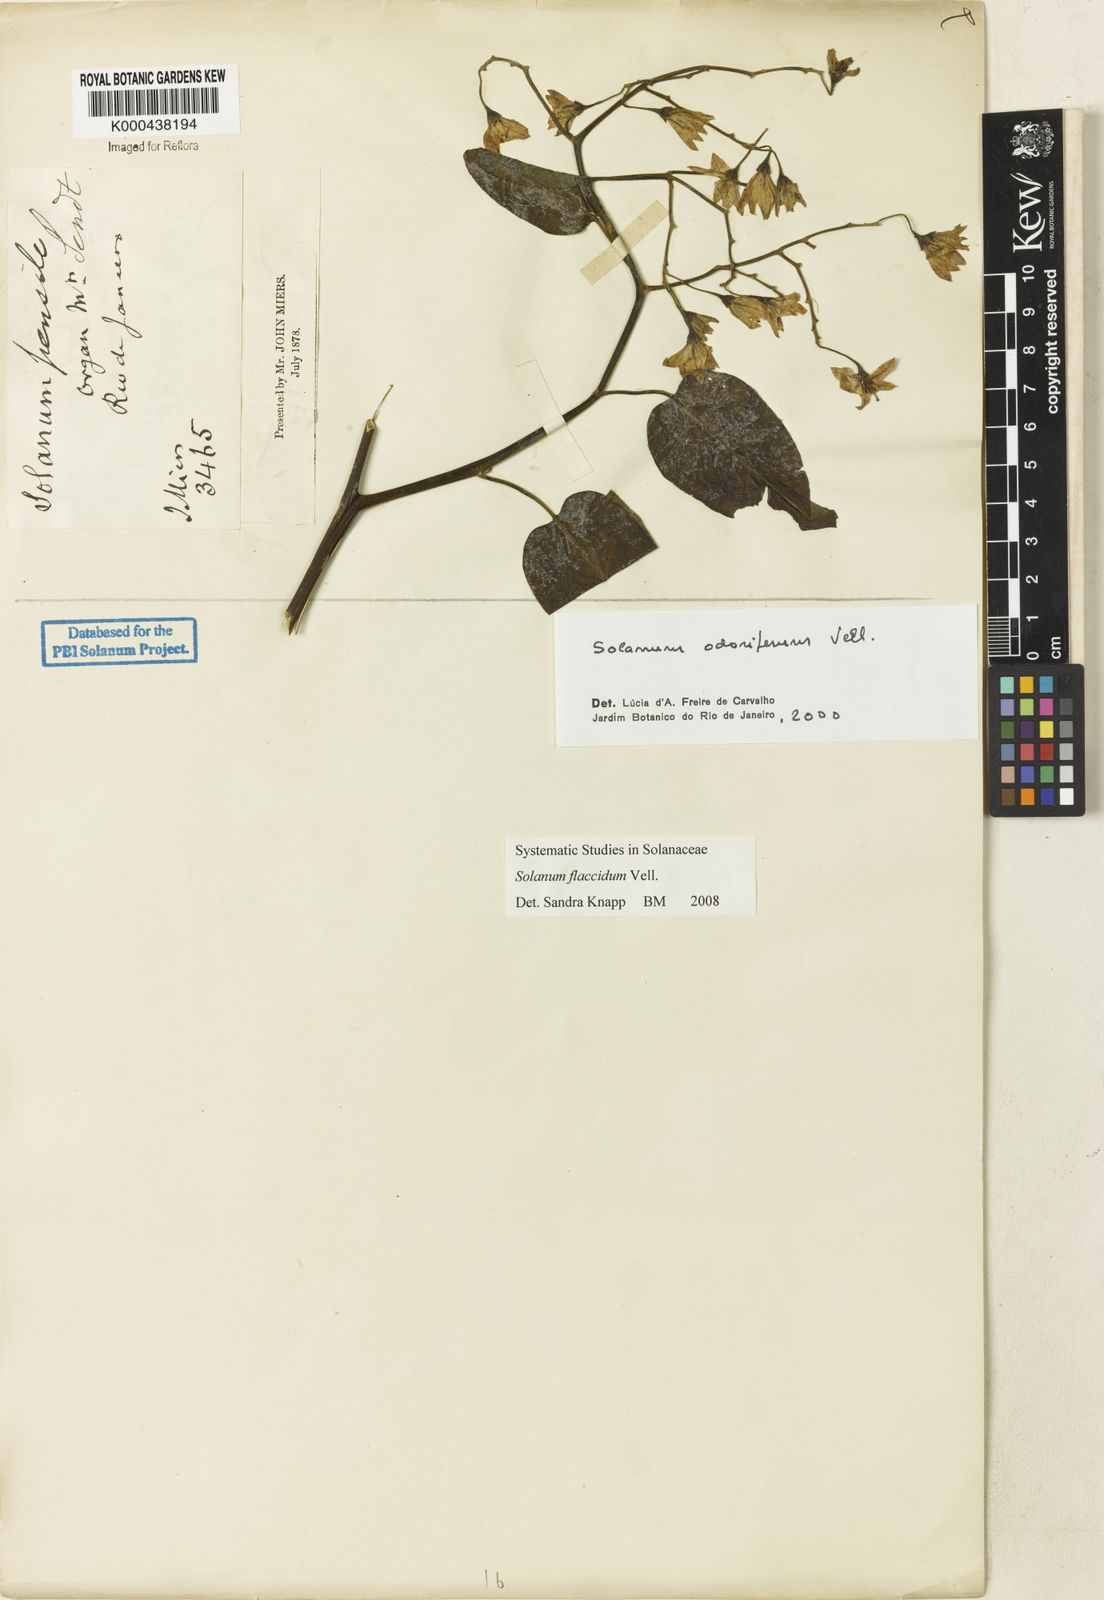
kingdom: Plantae
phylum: Tracheophyta
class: Magnoliopsida
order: Solanales
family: Solanaceae
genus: Solanum
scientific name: Solanum flaccidum
